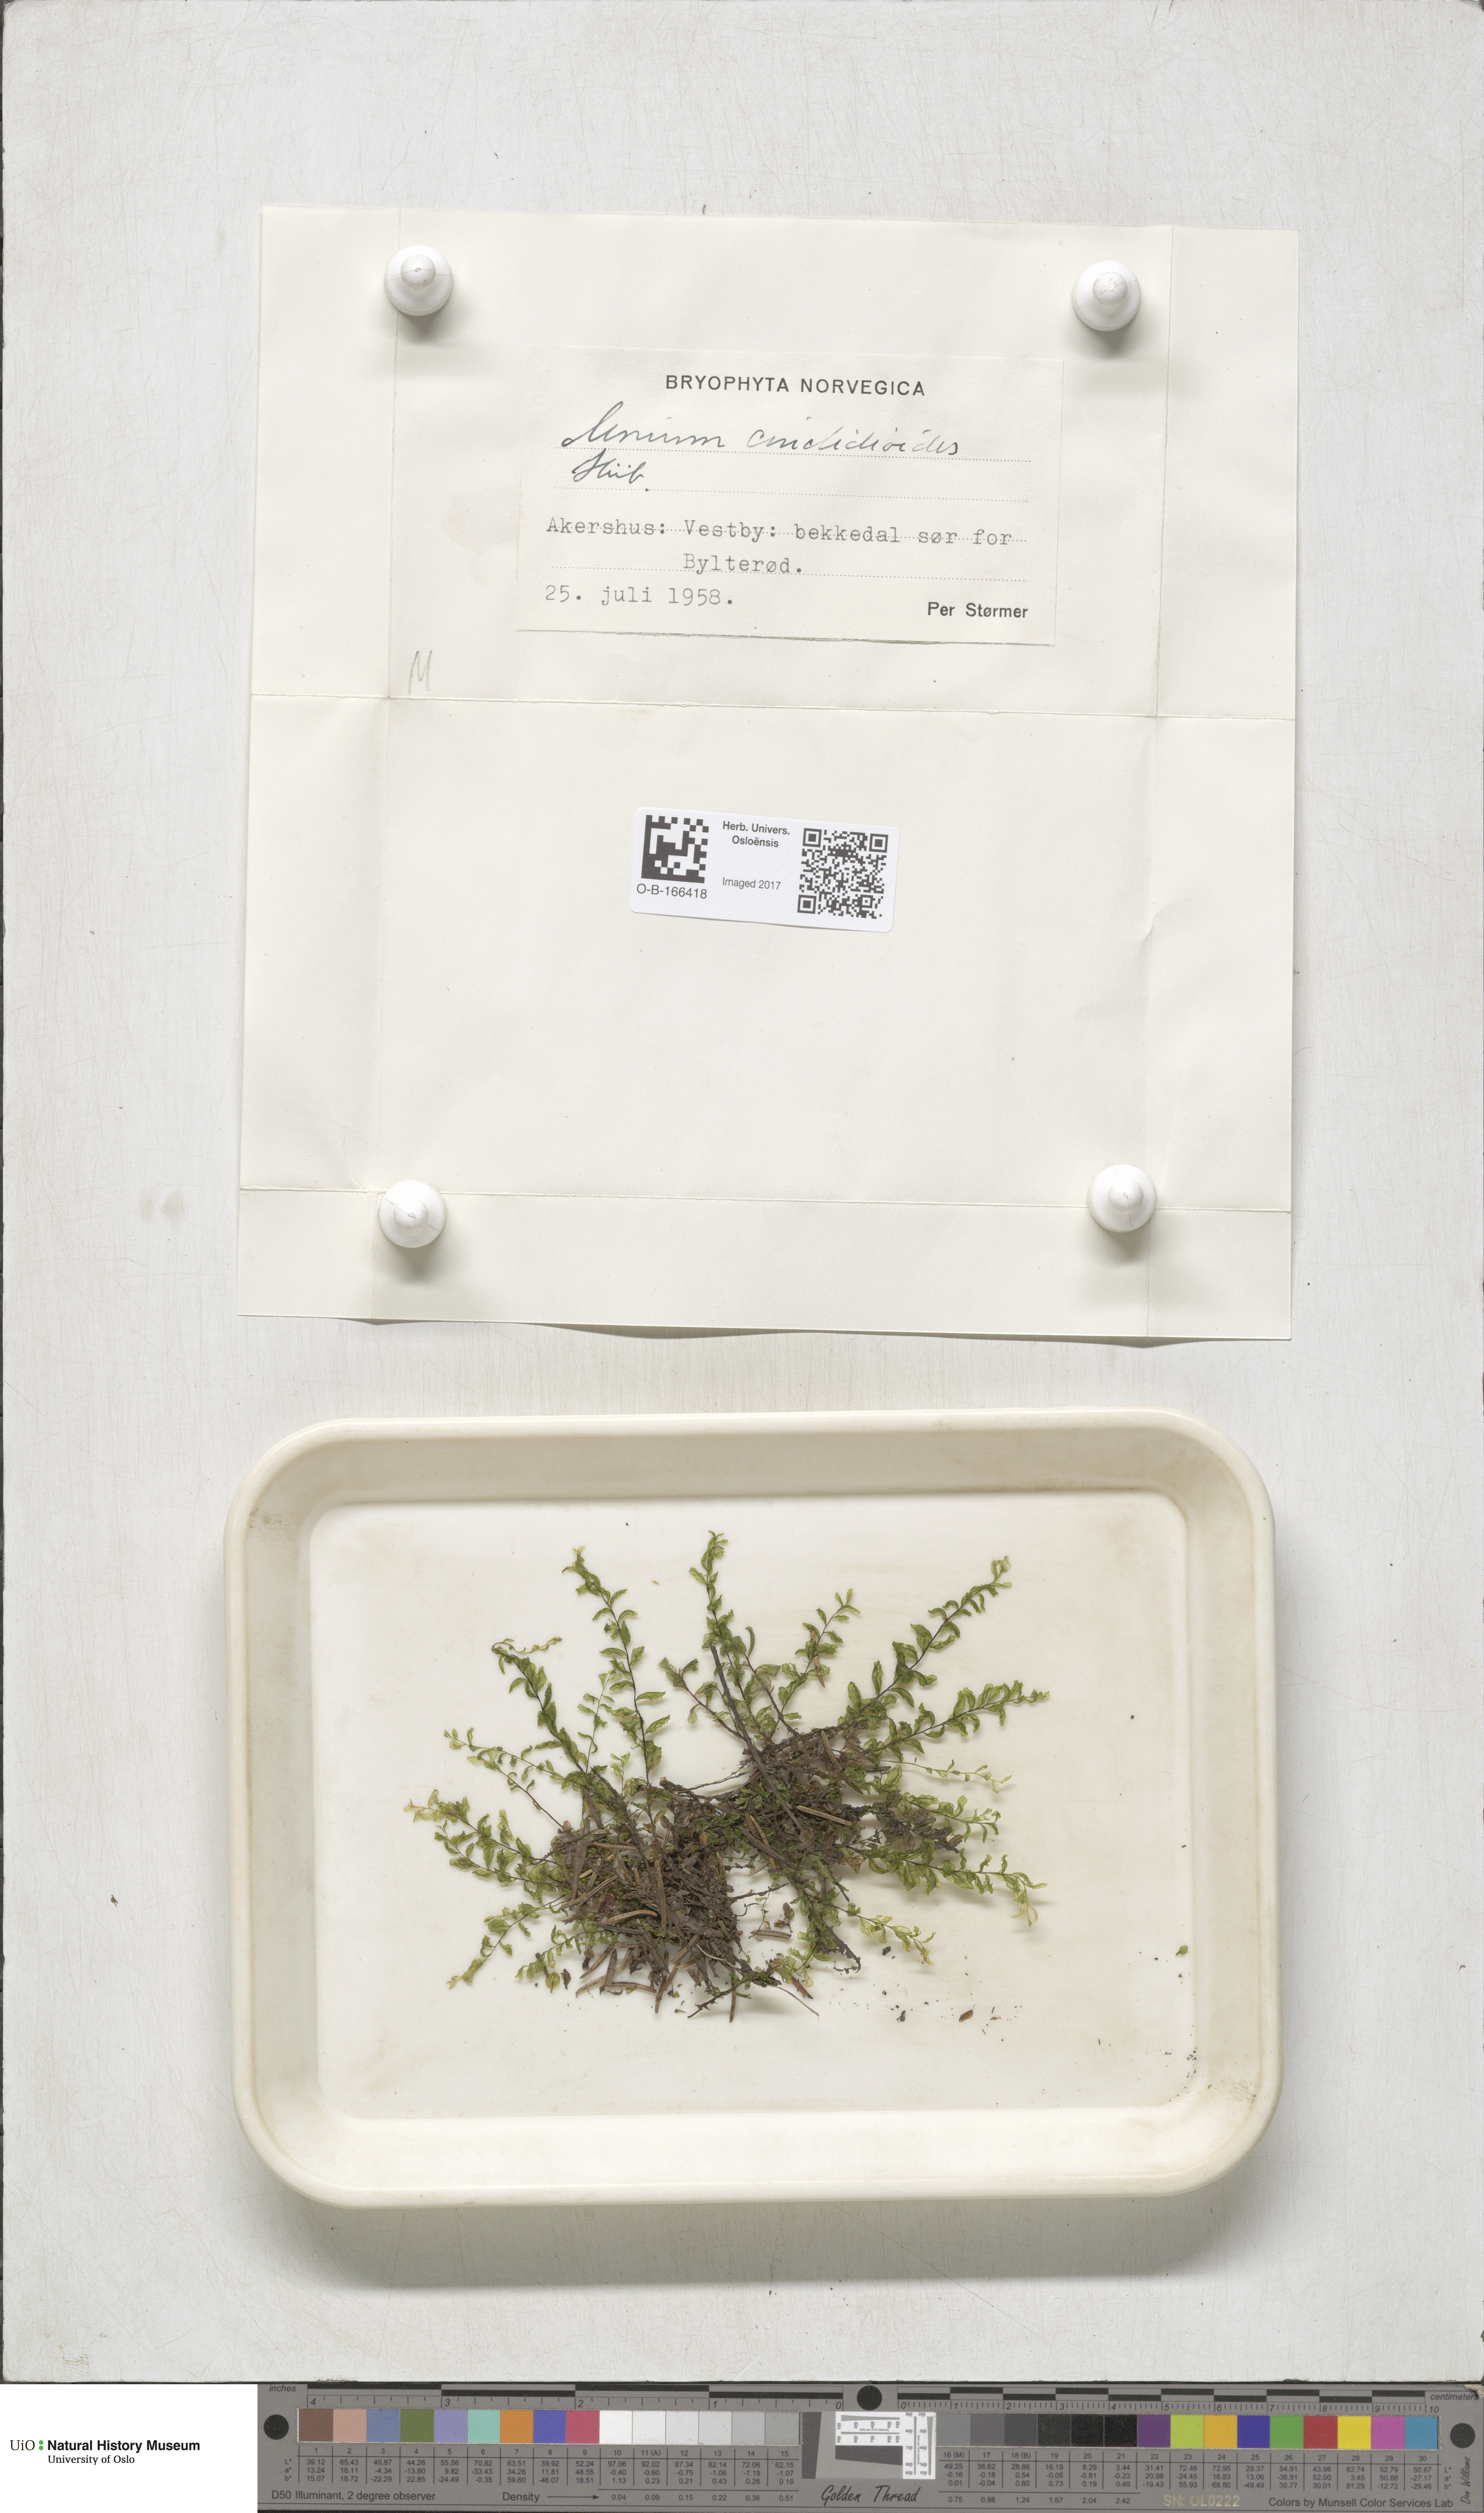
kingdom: Plantae
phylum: Bryophyta
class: Bryopsida
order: Bryales
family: Mniaceae
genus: Pseudobryum
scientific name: Pseudobryum cinclidioides
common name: River thyme moss
